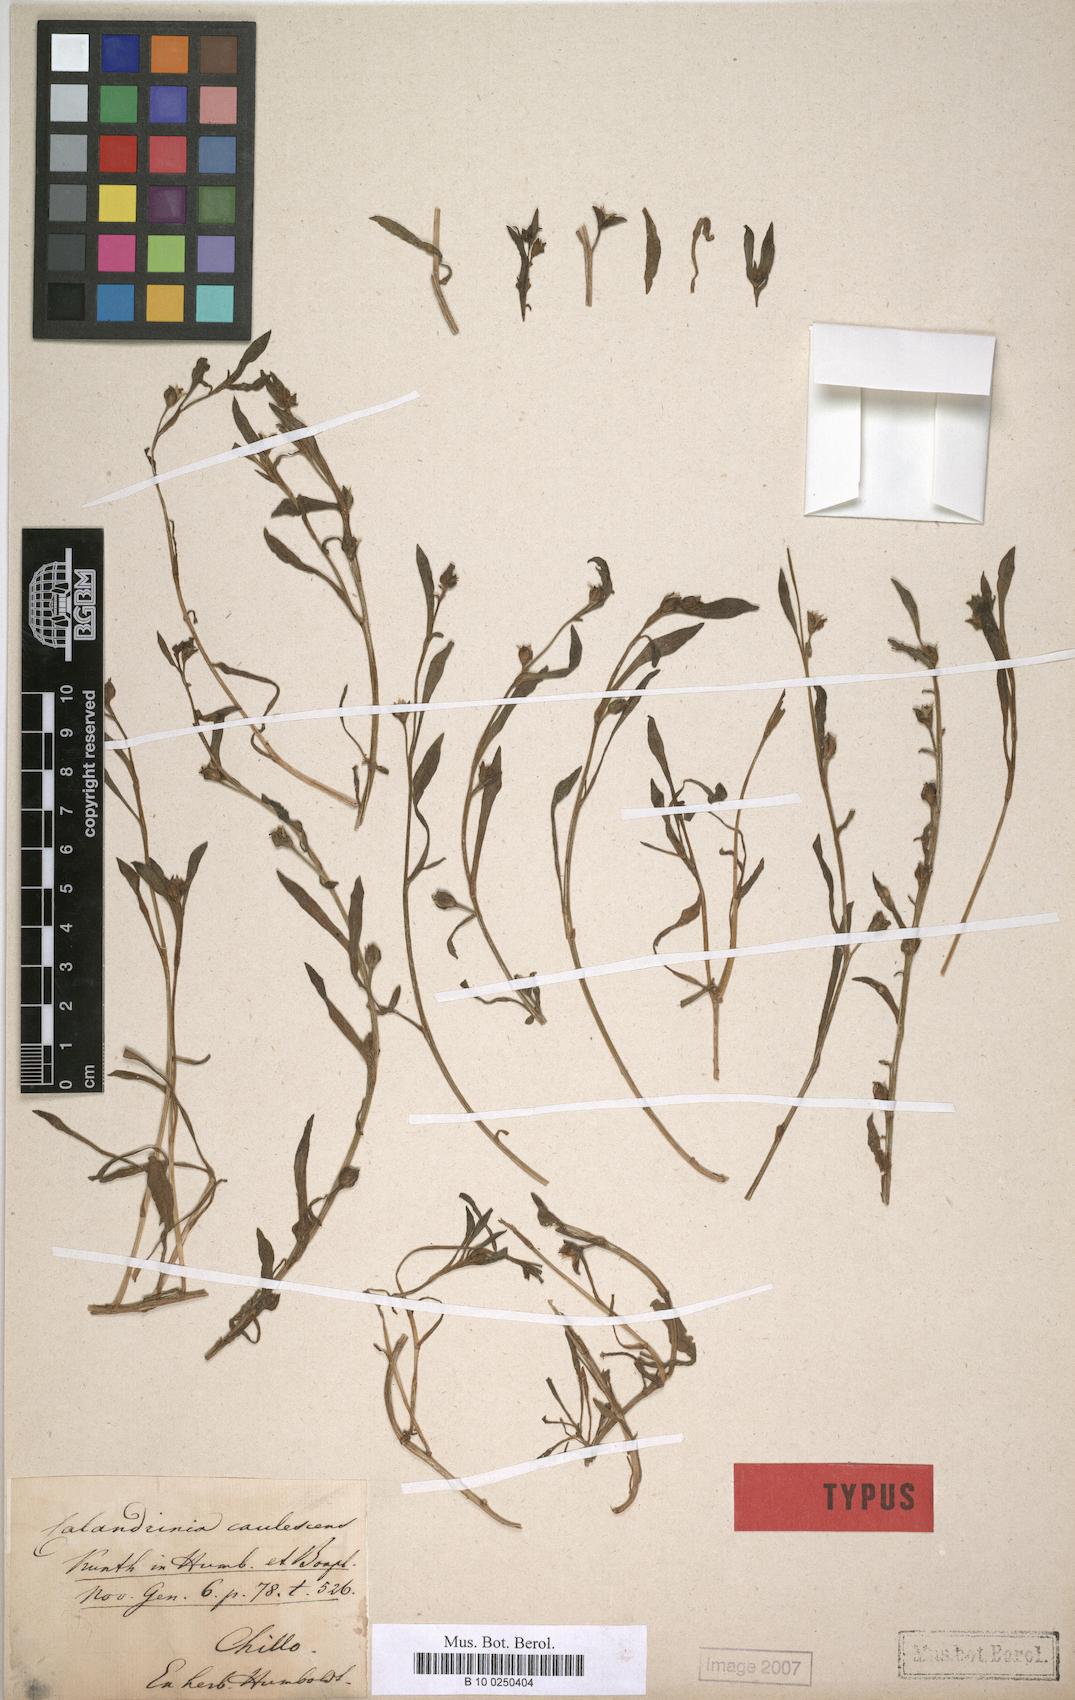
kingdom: Plantae
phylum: Tracheophyta
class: Magnoliopsida
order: Caryophyllales
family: Montiaceae
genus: Calandrinia
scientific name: Calandrinia ciliata
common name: Red-maids
